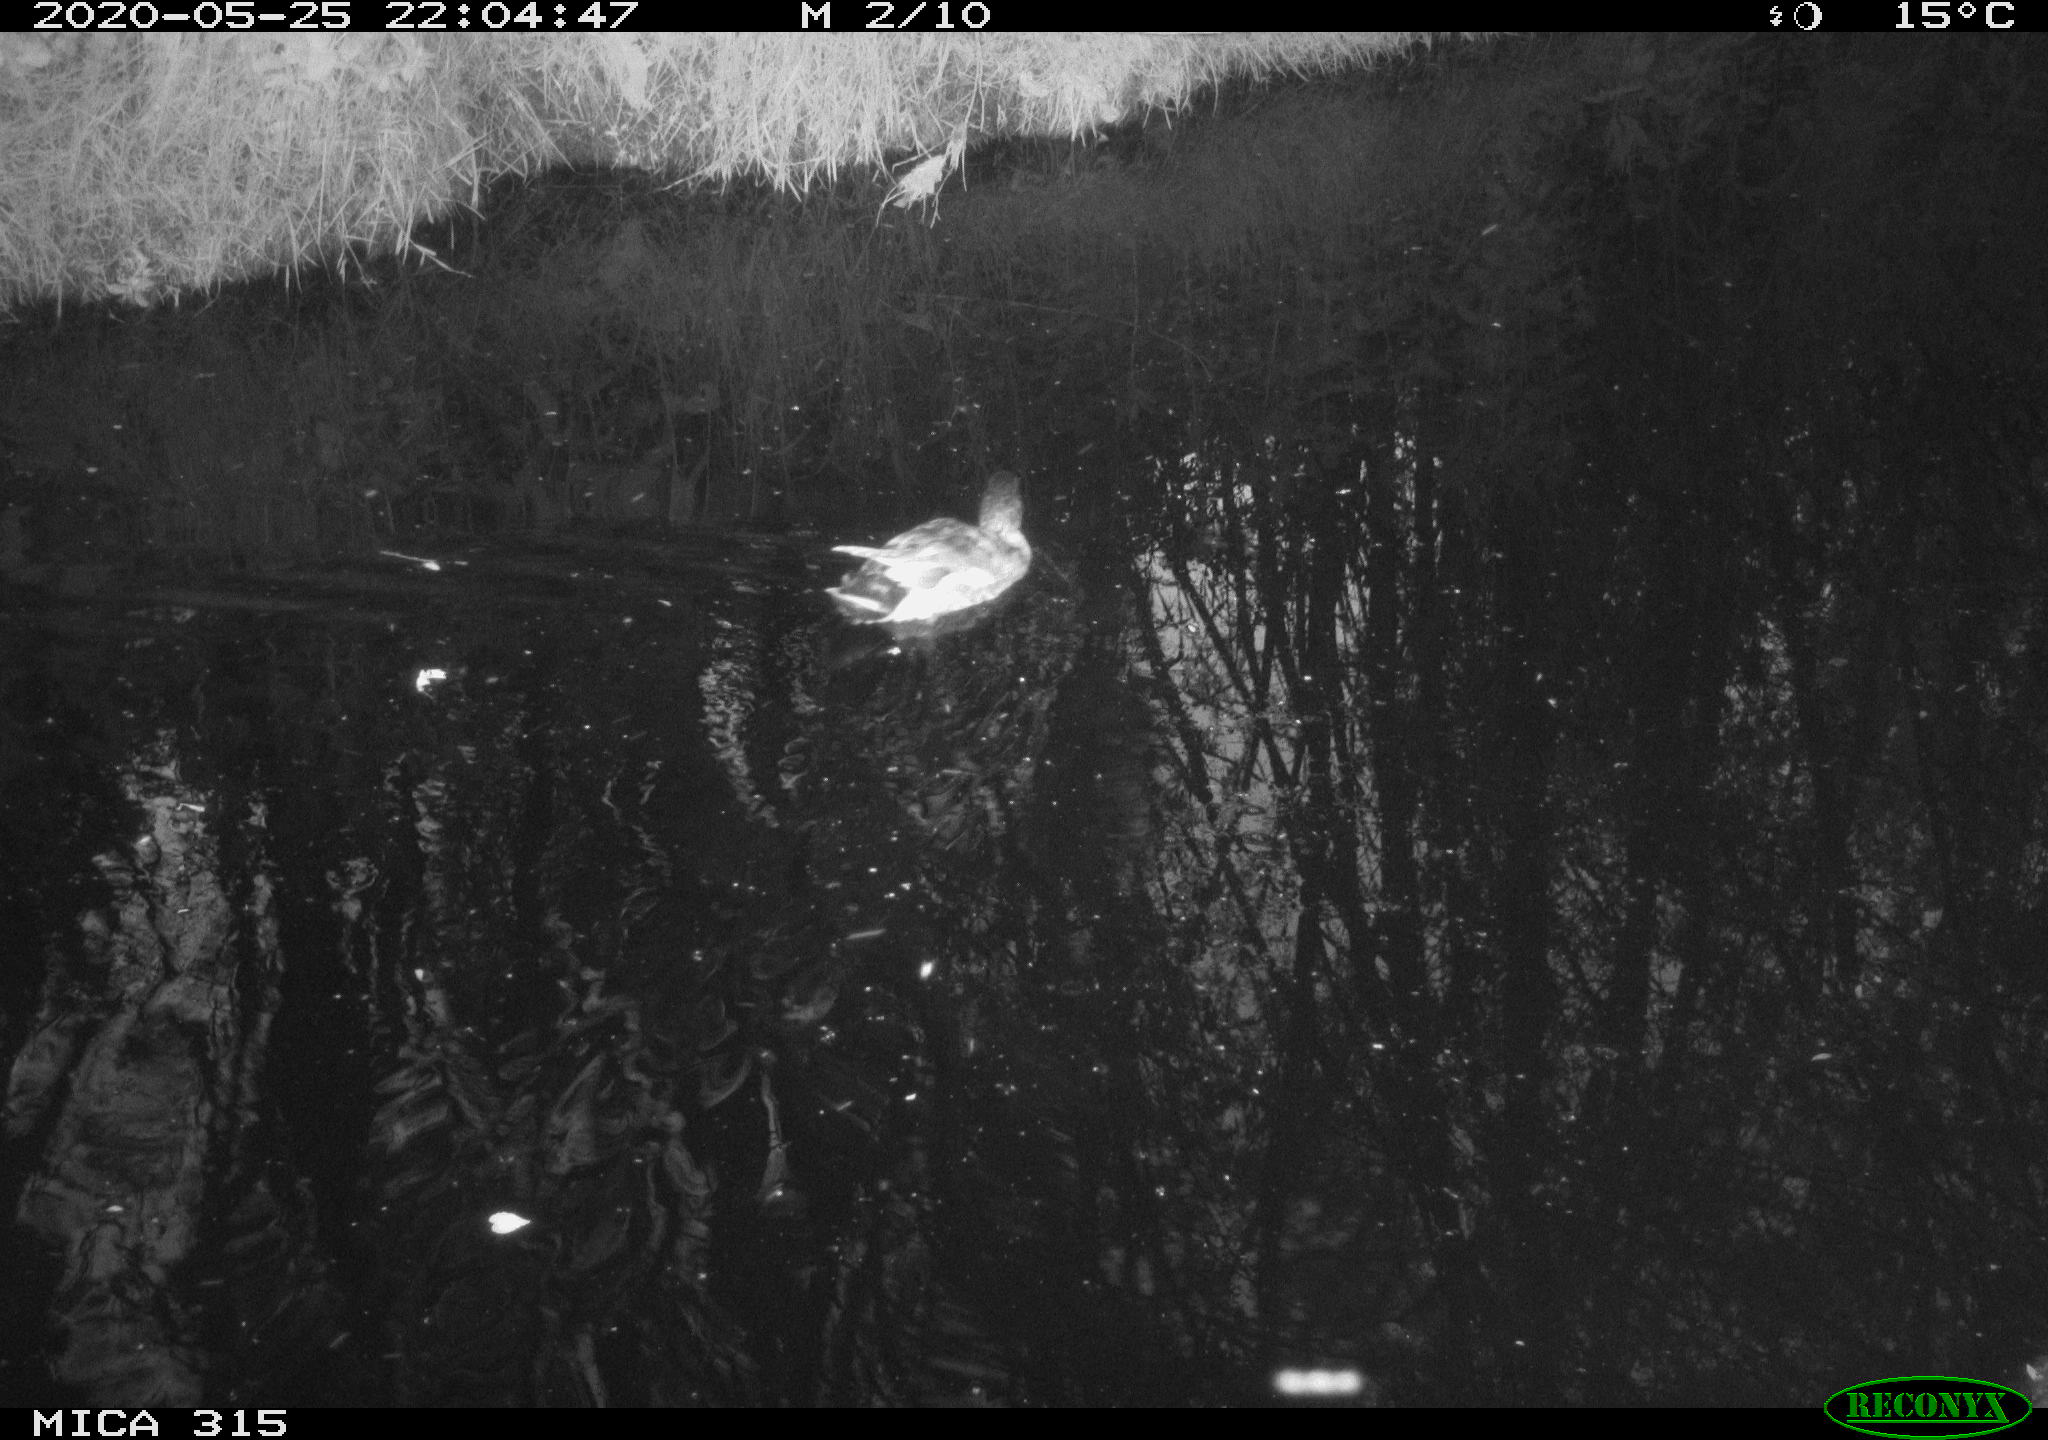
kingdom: Animalia
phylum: Chordata
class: Aves
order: Anseriformes
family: Anatidae
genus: Anas
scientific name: Anas platyrhynchos
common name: Mallard
